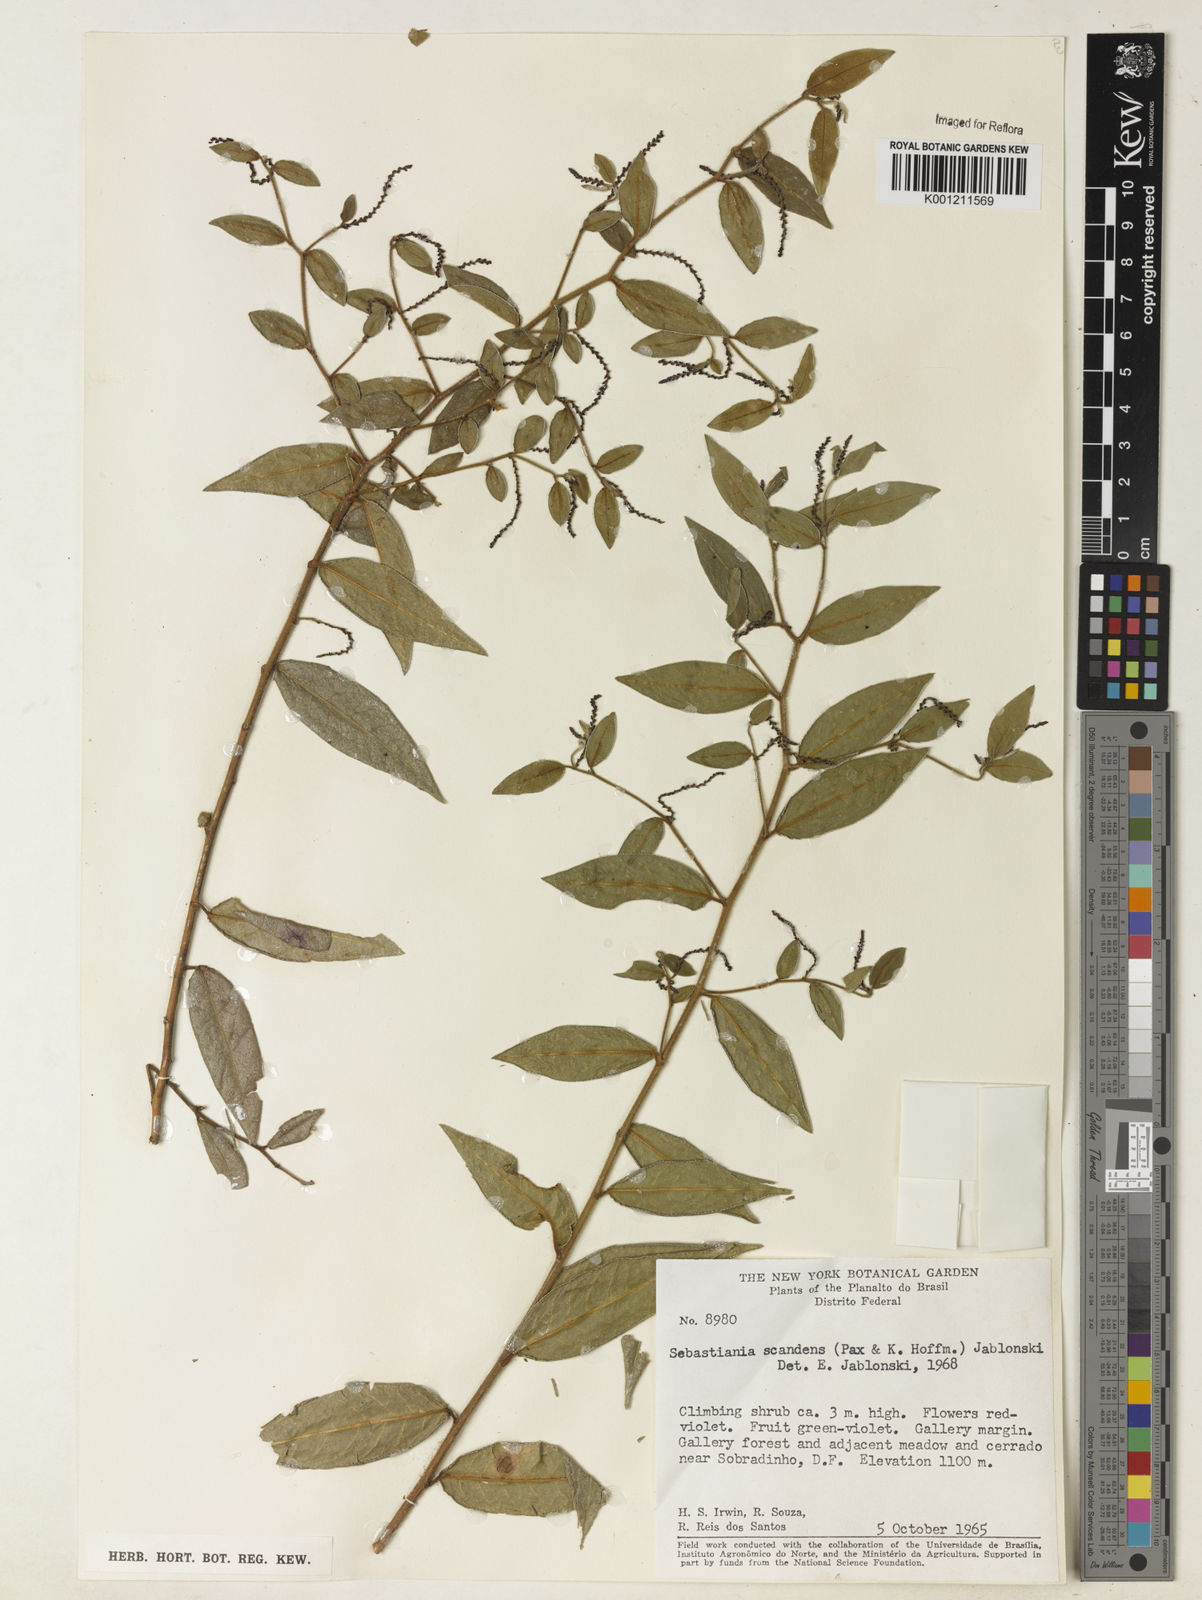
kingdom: Plantae
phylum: Tracheophyta
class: Magnoliopsida
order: Malpighiales
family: Euphorbiaceae
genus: Microstachys
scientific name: Microstachys hispida
